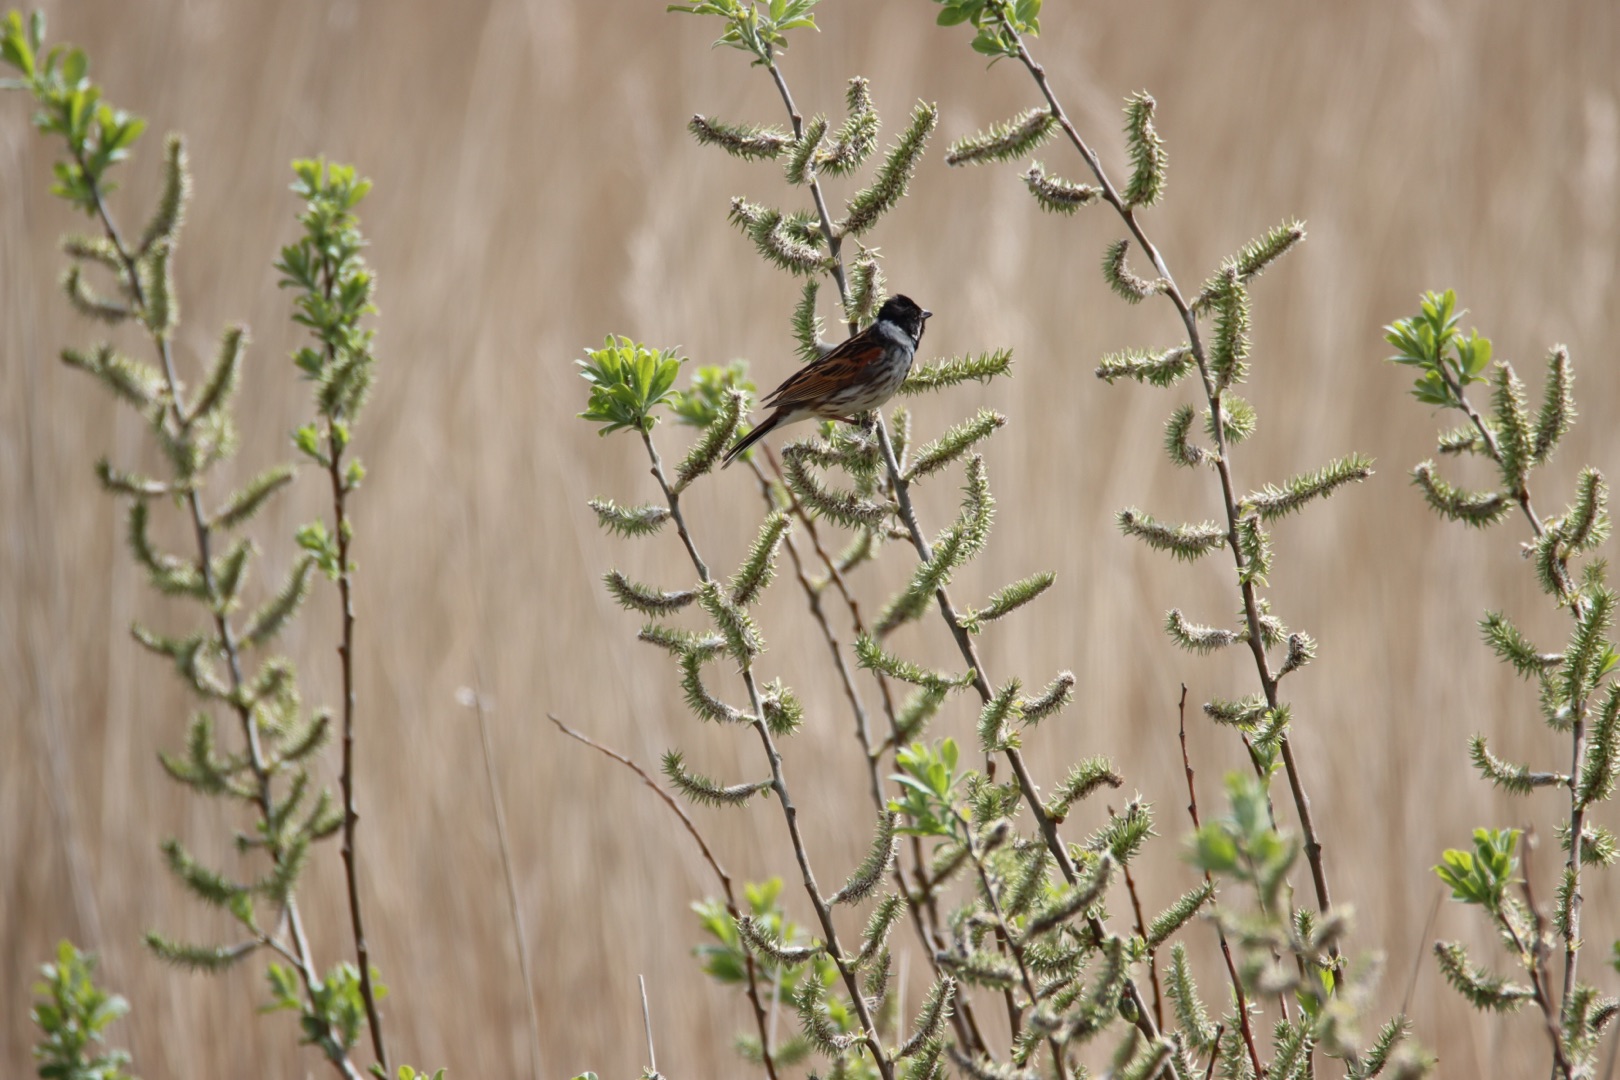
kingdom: Animalia
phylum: Chordata
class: Aves
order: Passeriformes
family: Emberizidae
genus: Emberiza
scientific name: Emberiza schoeniclus
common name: Rørspurv
